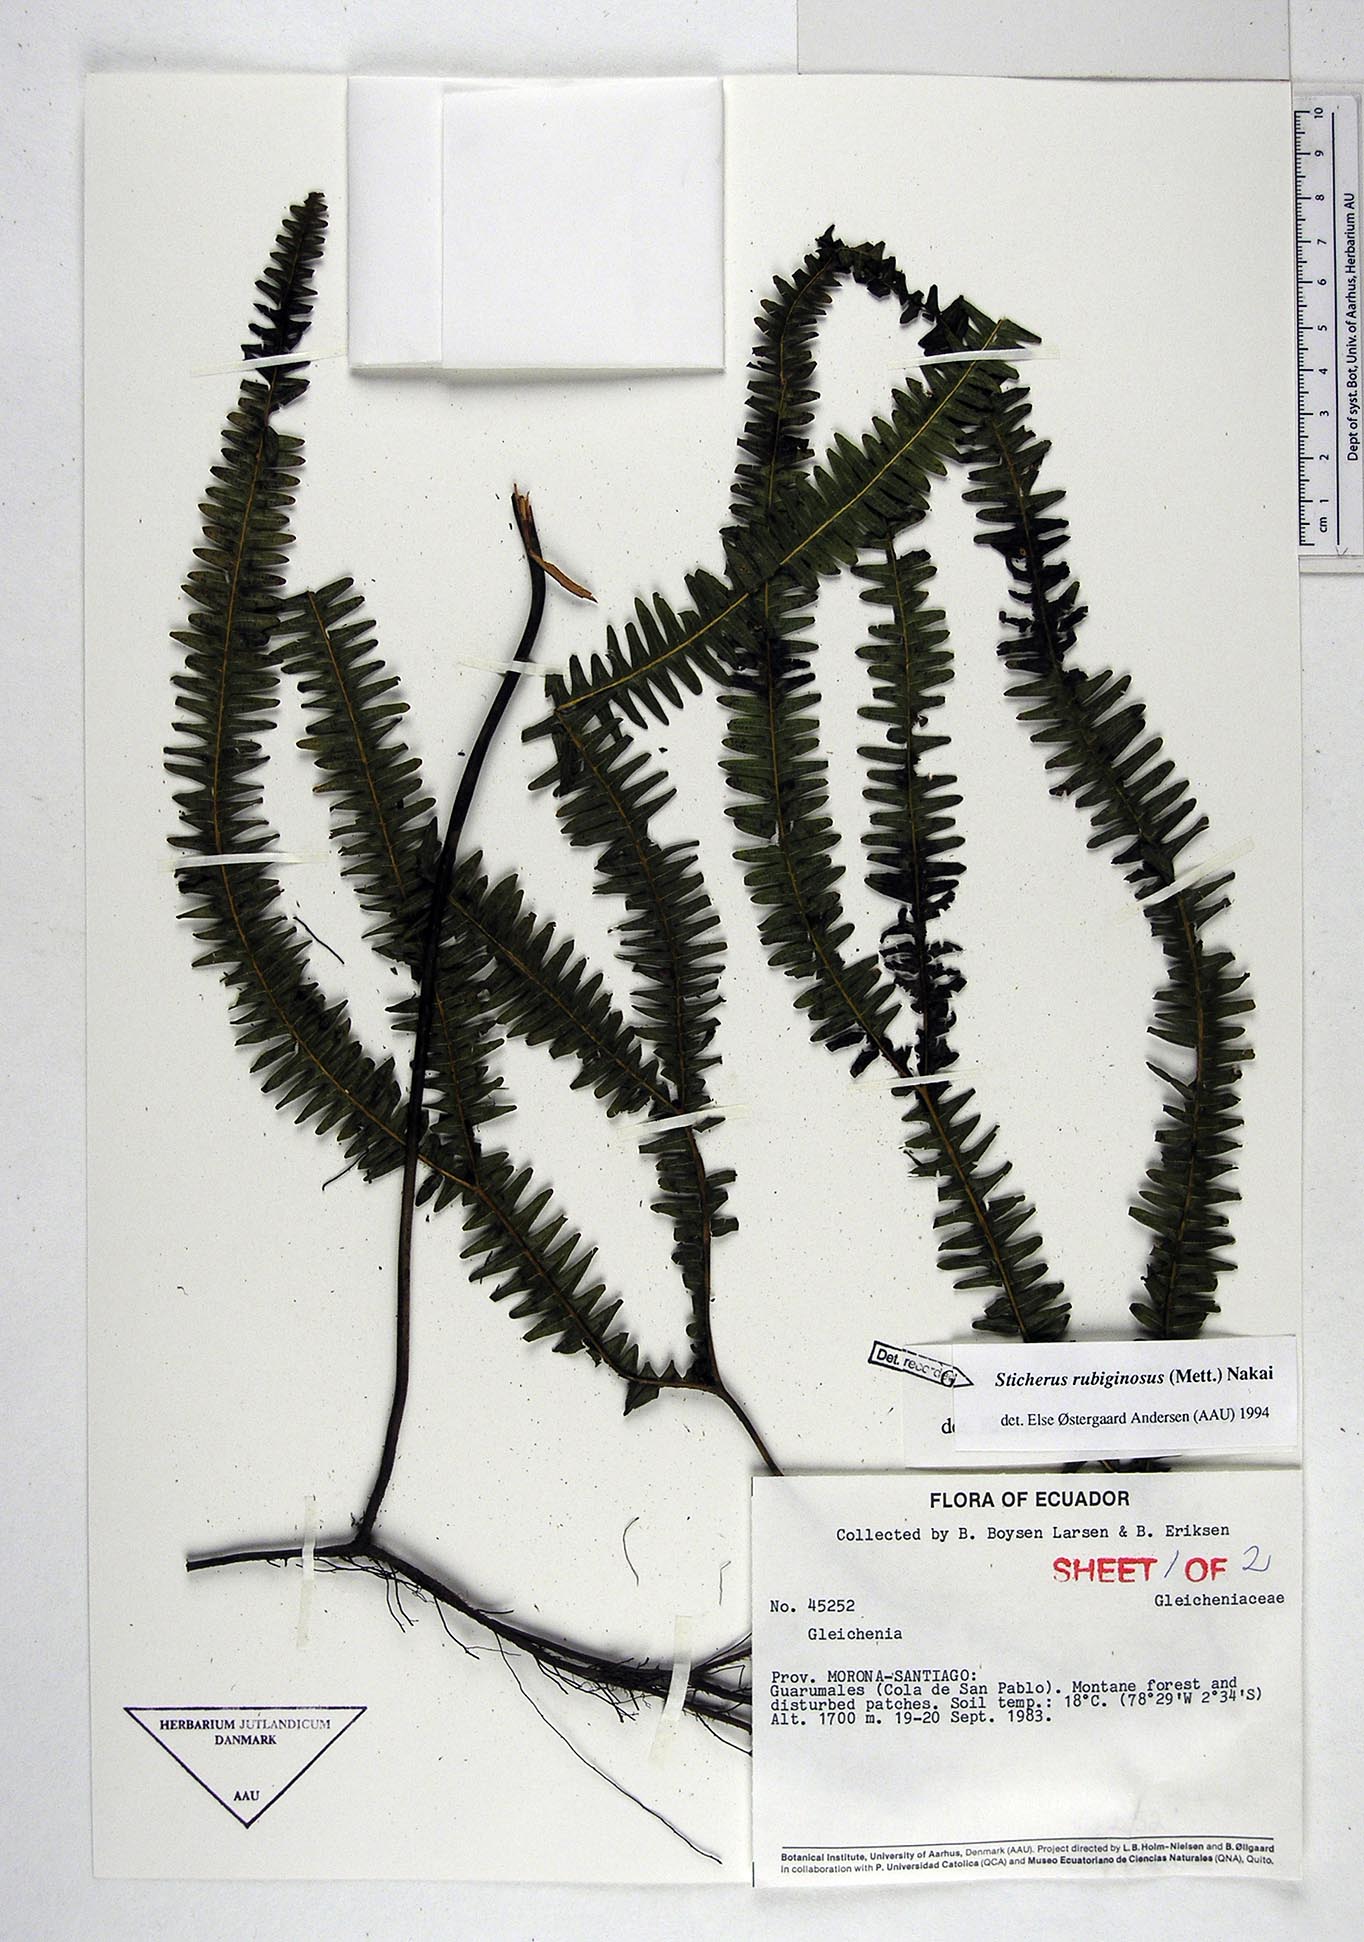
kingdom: Plantae
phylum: Tracheophyta
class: Polypodiopsida
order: Gleicheniales
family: Gleicheniaceae
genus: Sticherus
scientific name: Sticherus rubiginosus
